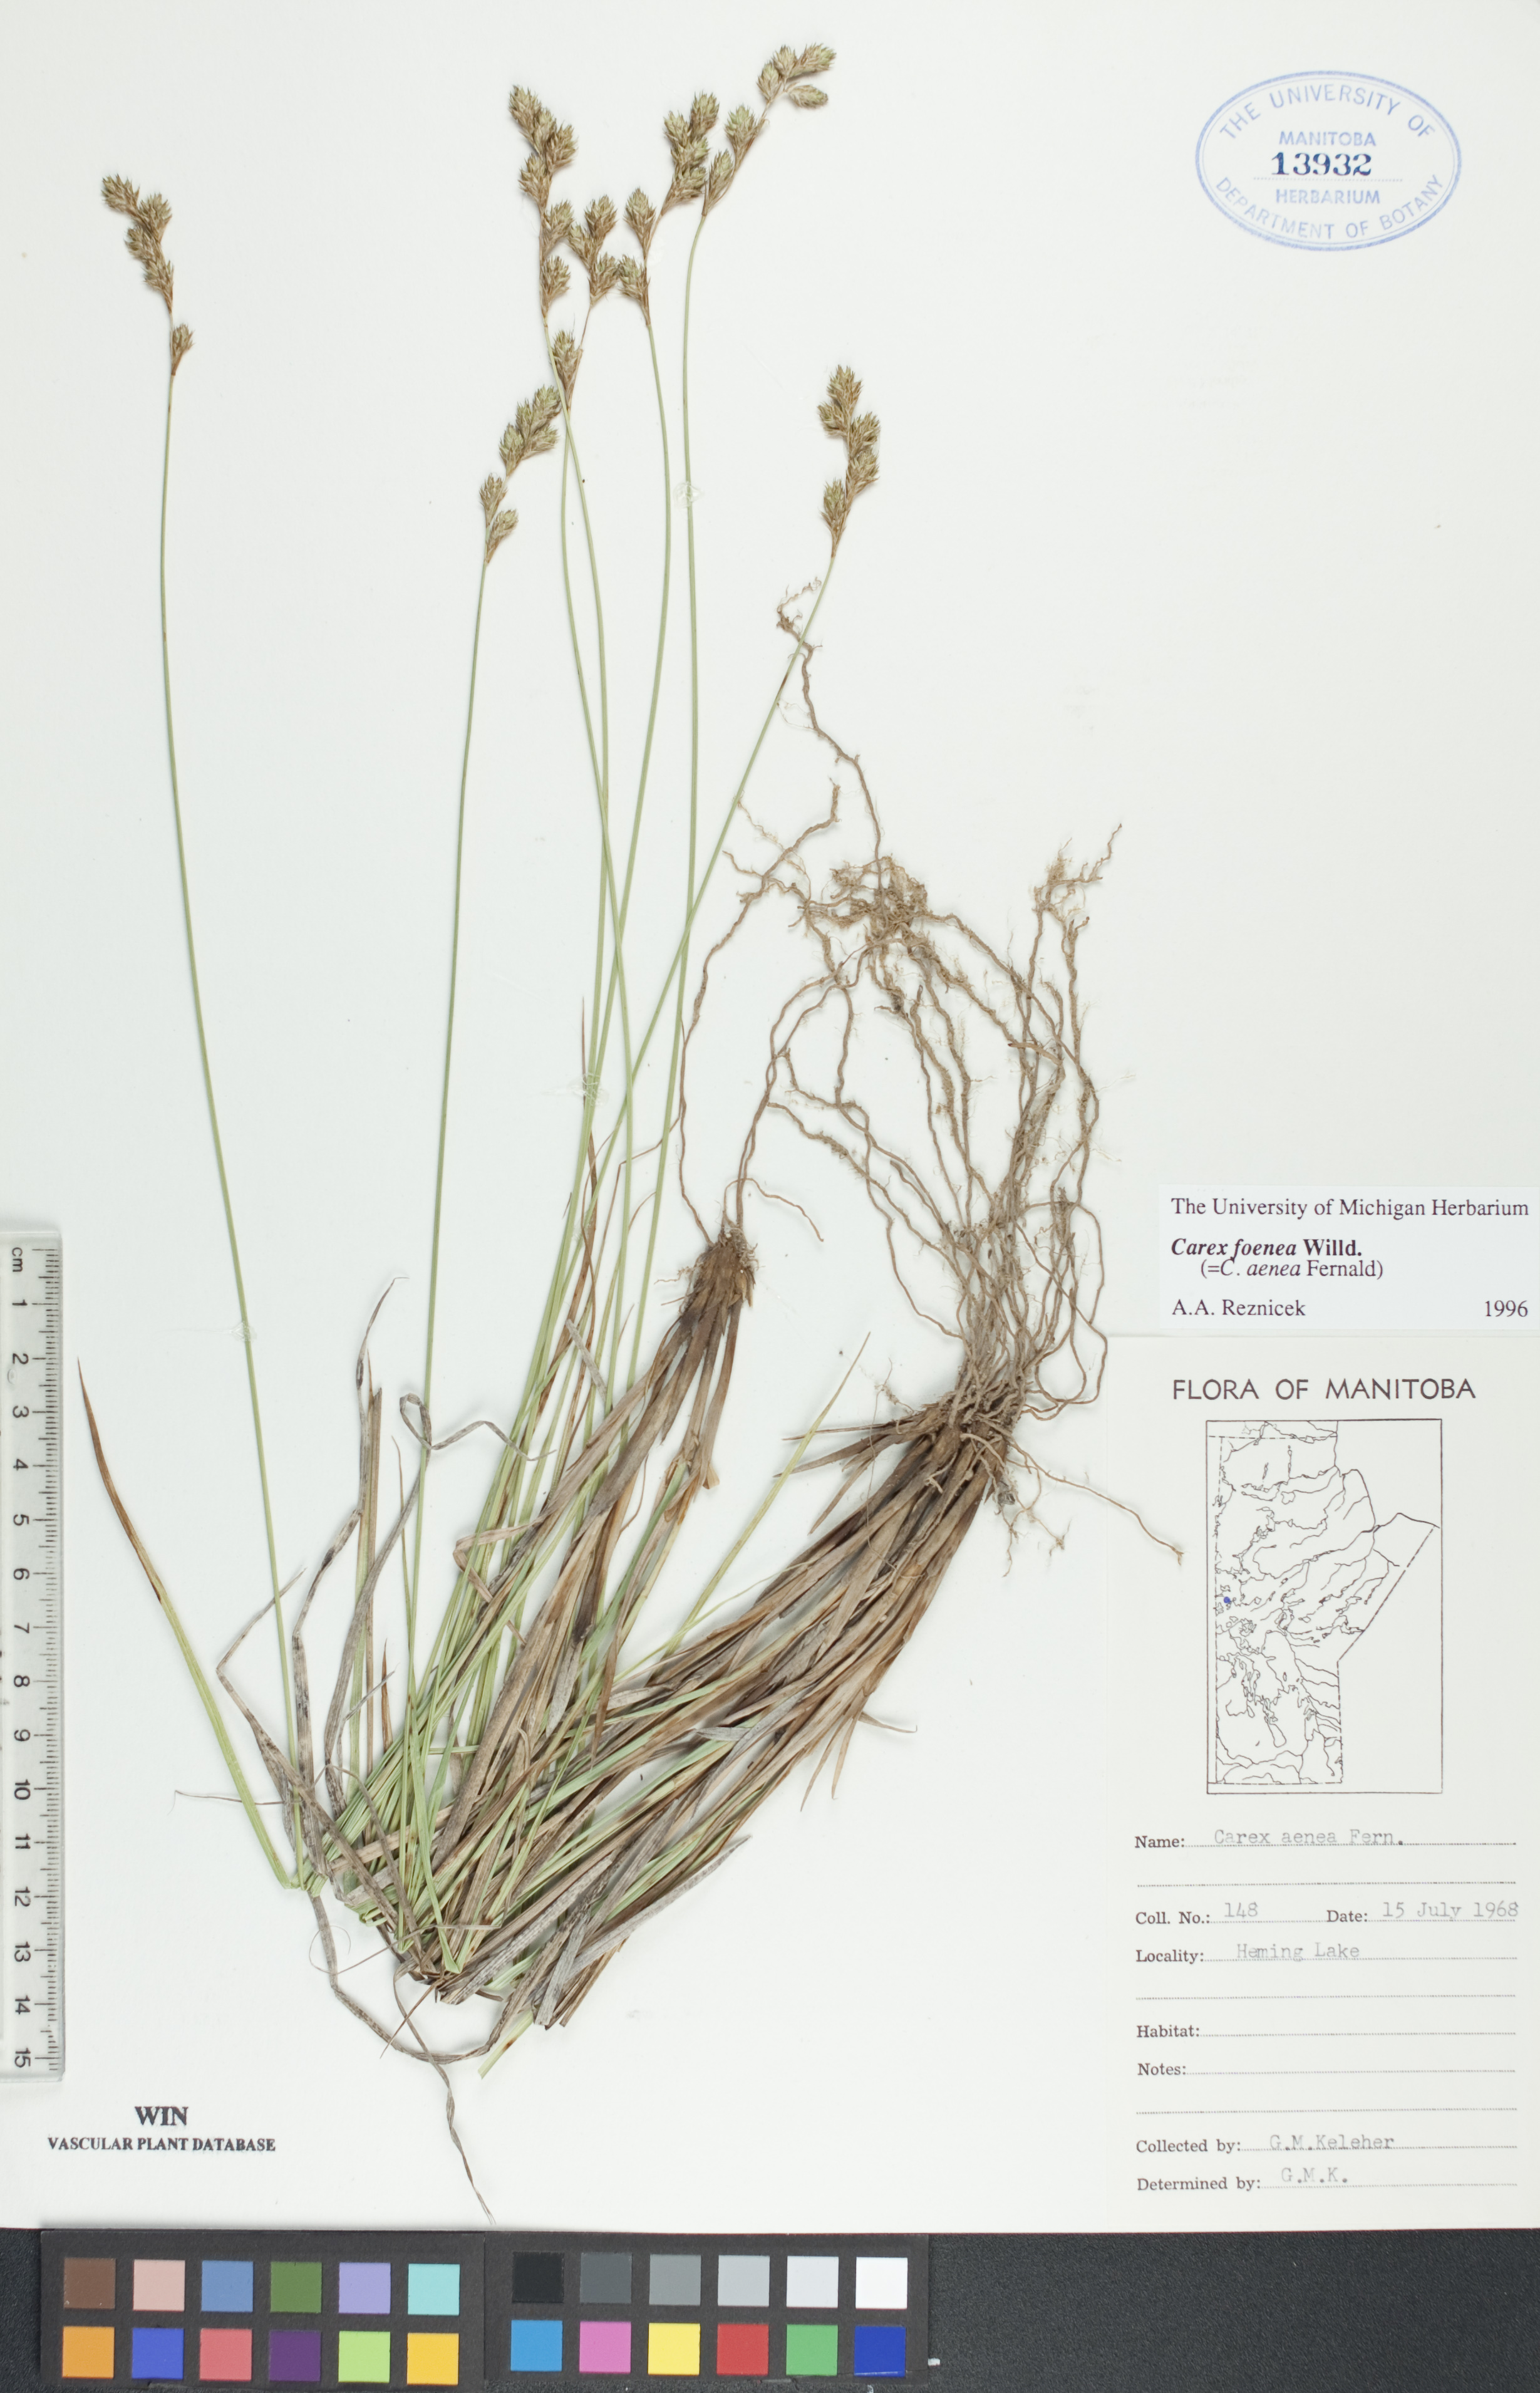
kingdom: Plantae
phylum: Tracheophyta
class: Liliopsida
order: Poales
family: Cyperaceae
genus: Carex
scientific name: Carex foenea
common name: Bronze sedge
